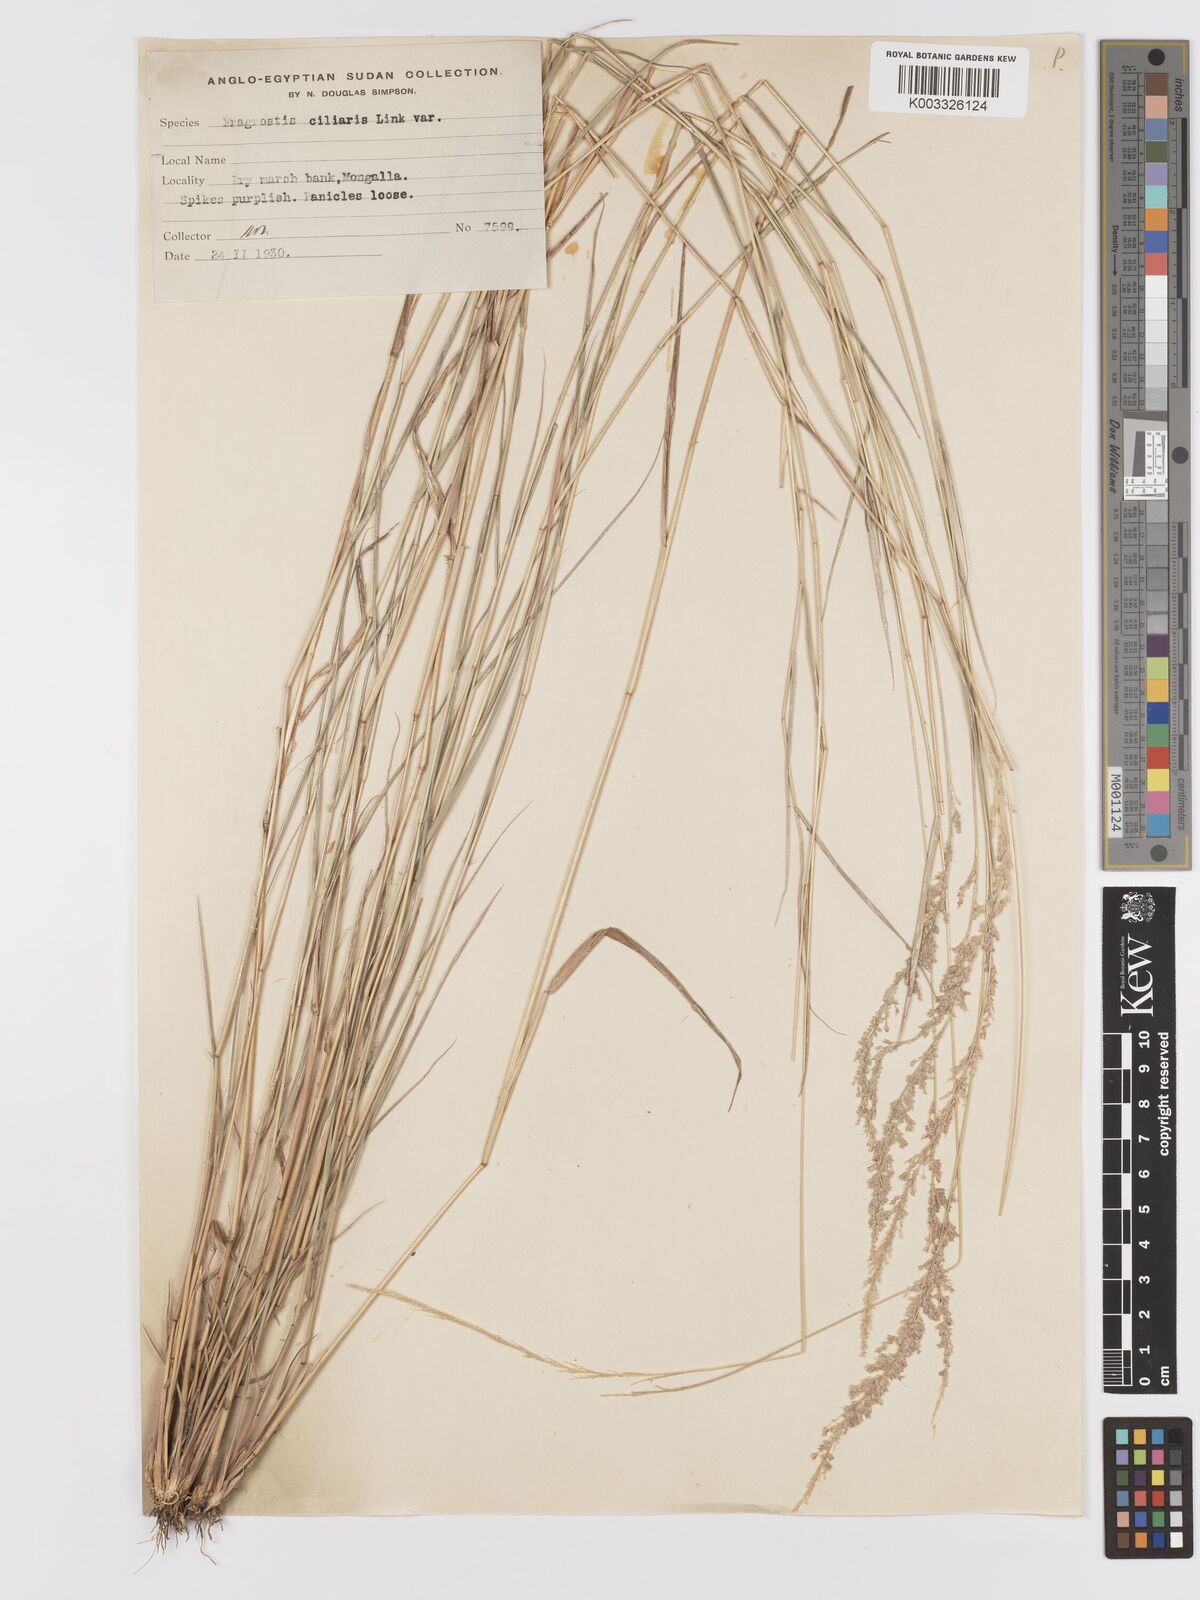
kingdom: Plantae
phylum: Tracheophyta
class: Liliopsida
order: Poales
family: Poaceae
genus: Eragrostis
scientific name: Eragrostis ciliaris
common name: Gophertail lovegrass
